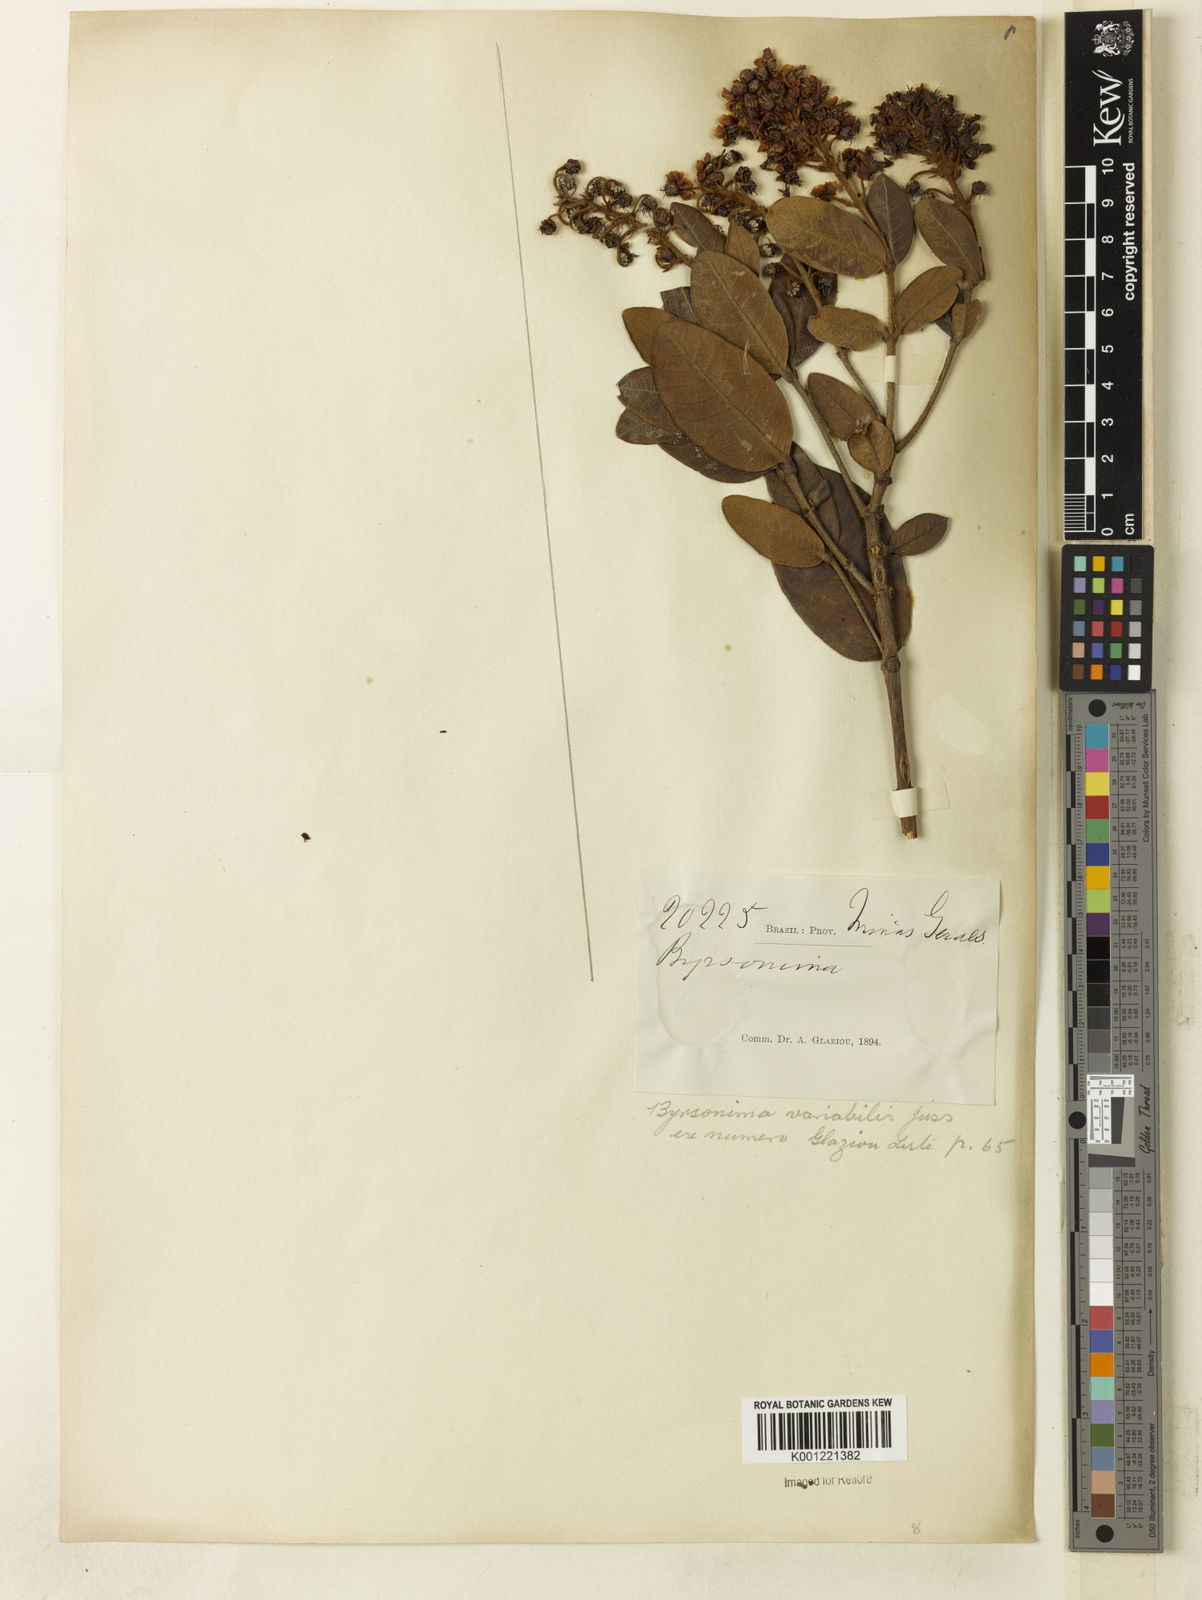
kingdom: Plantae
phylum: Tracheophyta
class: Magnoliopsida
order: Malpighiales
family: Malpighiaceae
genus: Byrsonima
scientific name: Byrsonima variabilis
